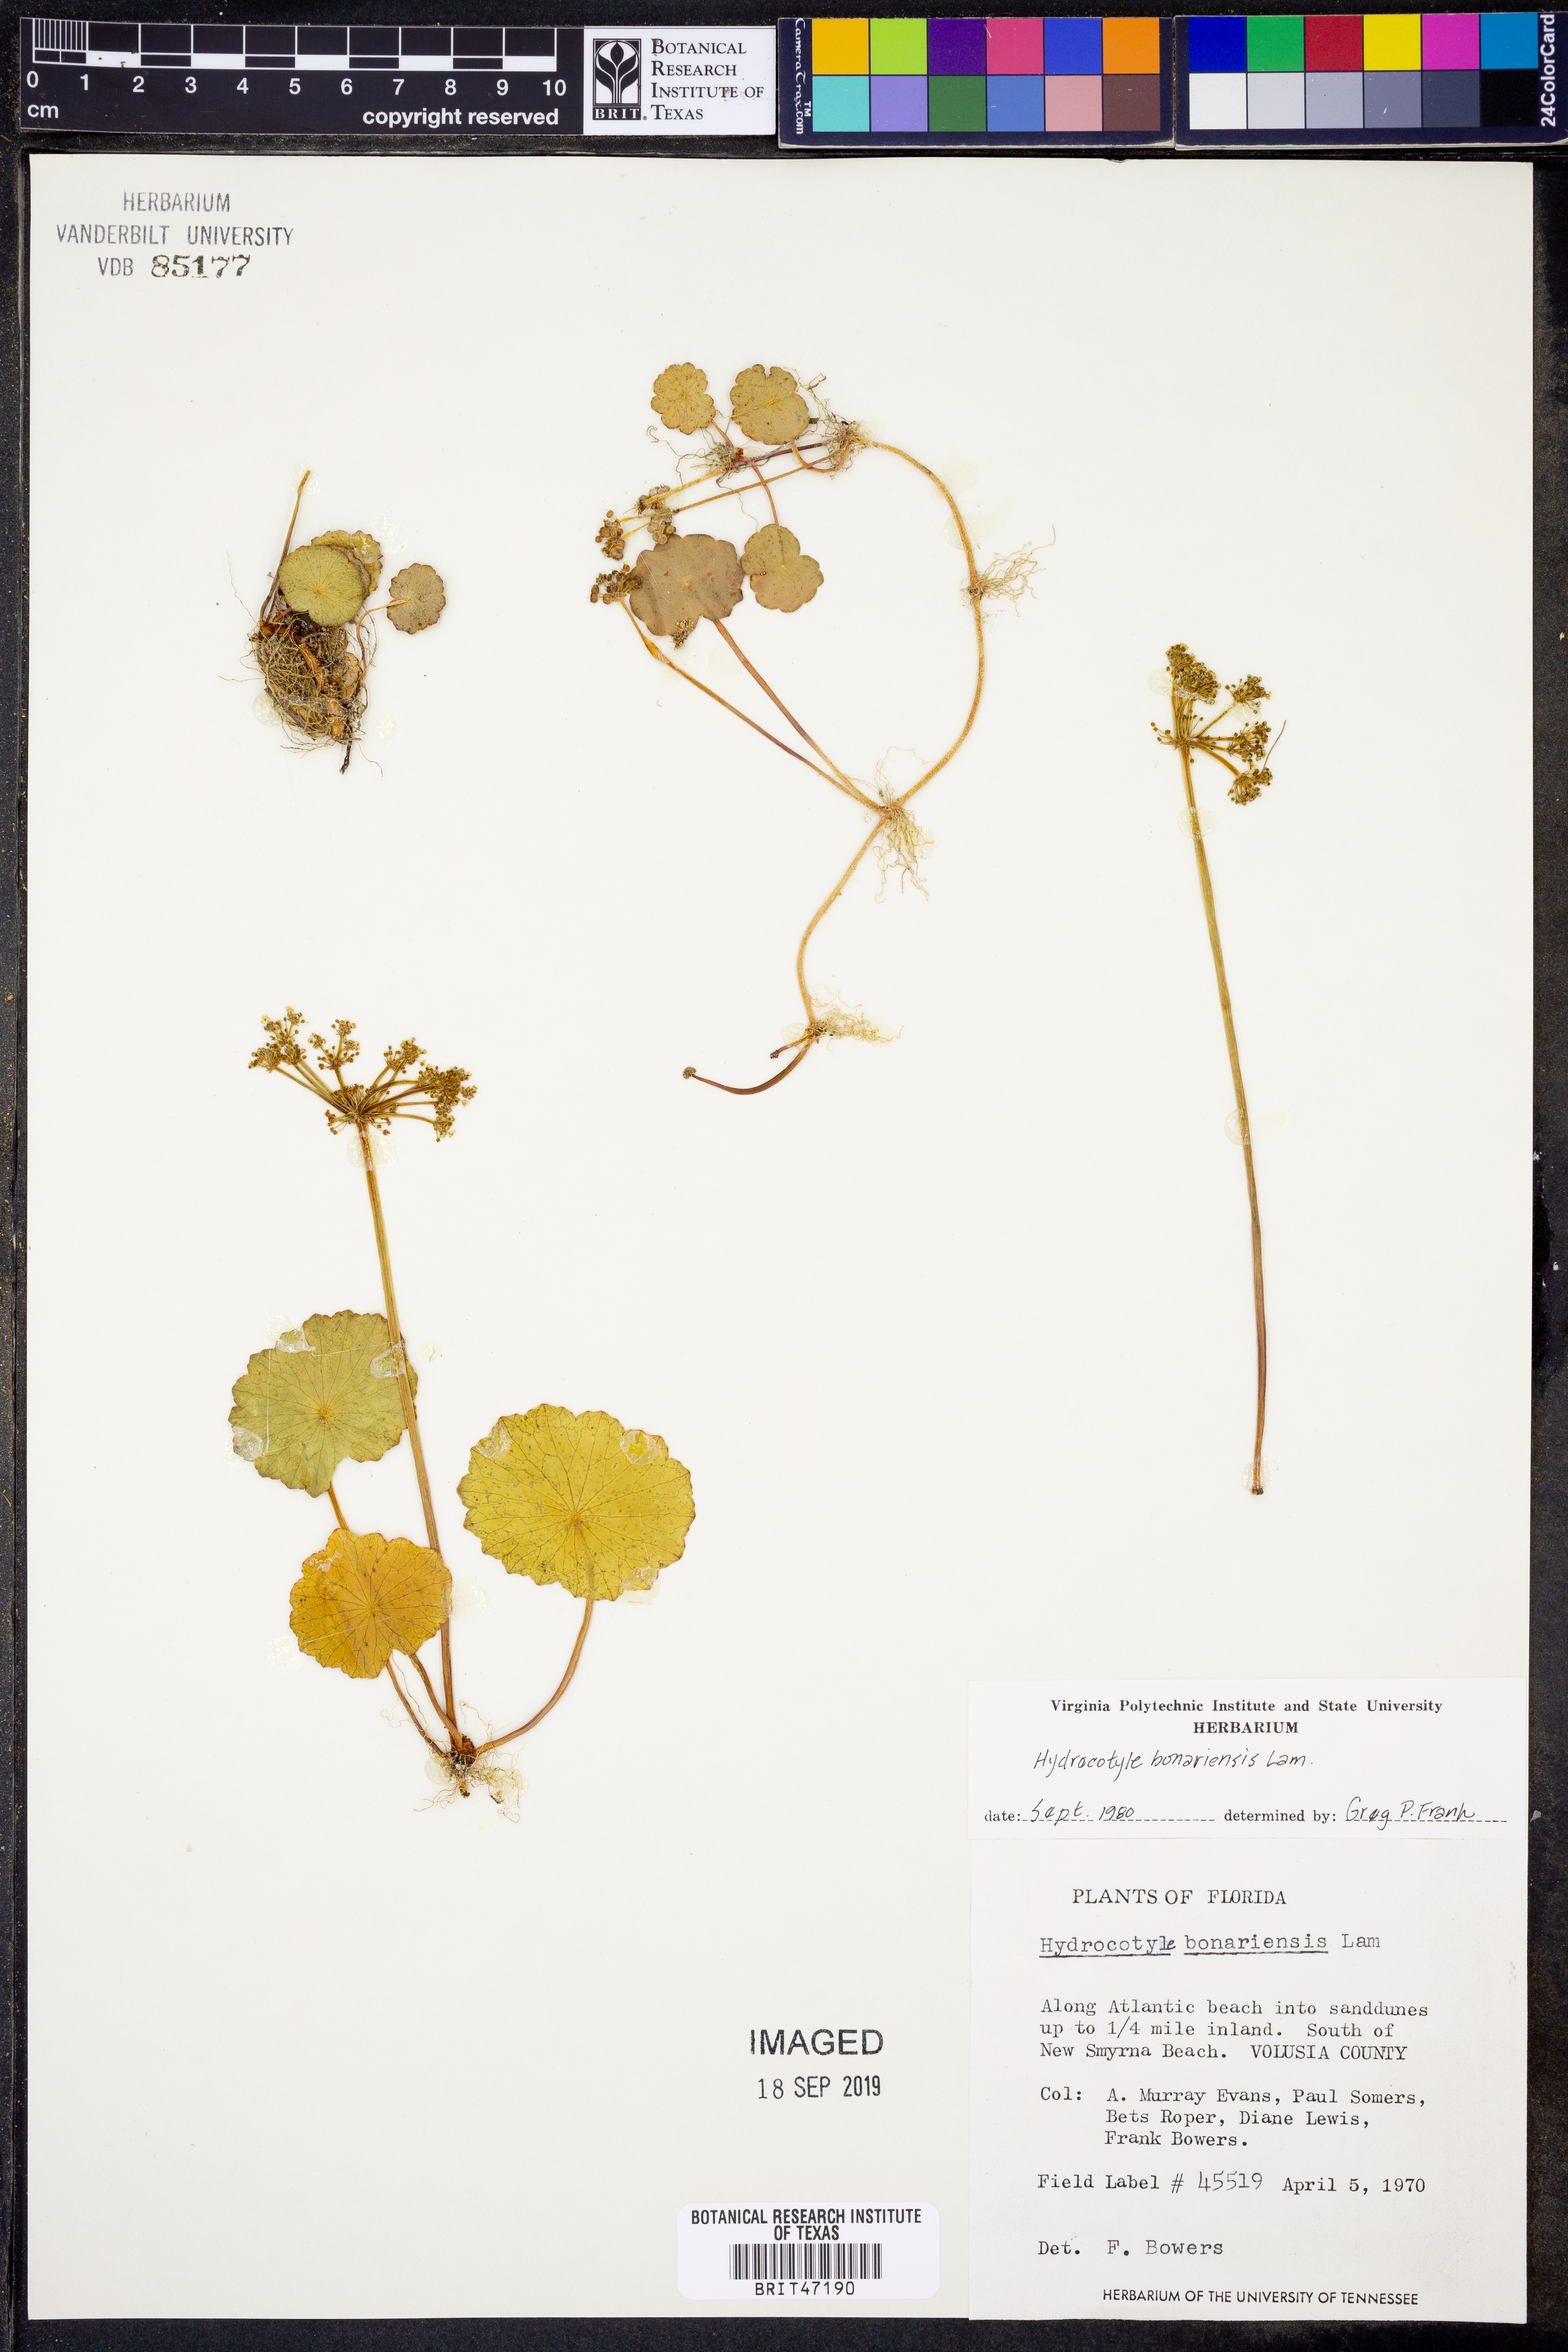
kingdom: Plantae
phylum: Tracheophyta
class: Magnoliopsida
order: Apiales
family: Araliaceae
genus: Hydrocotyle
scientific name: Hydrocotyle bonariensis
